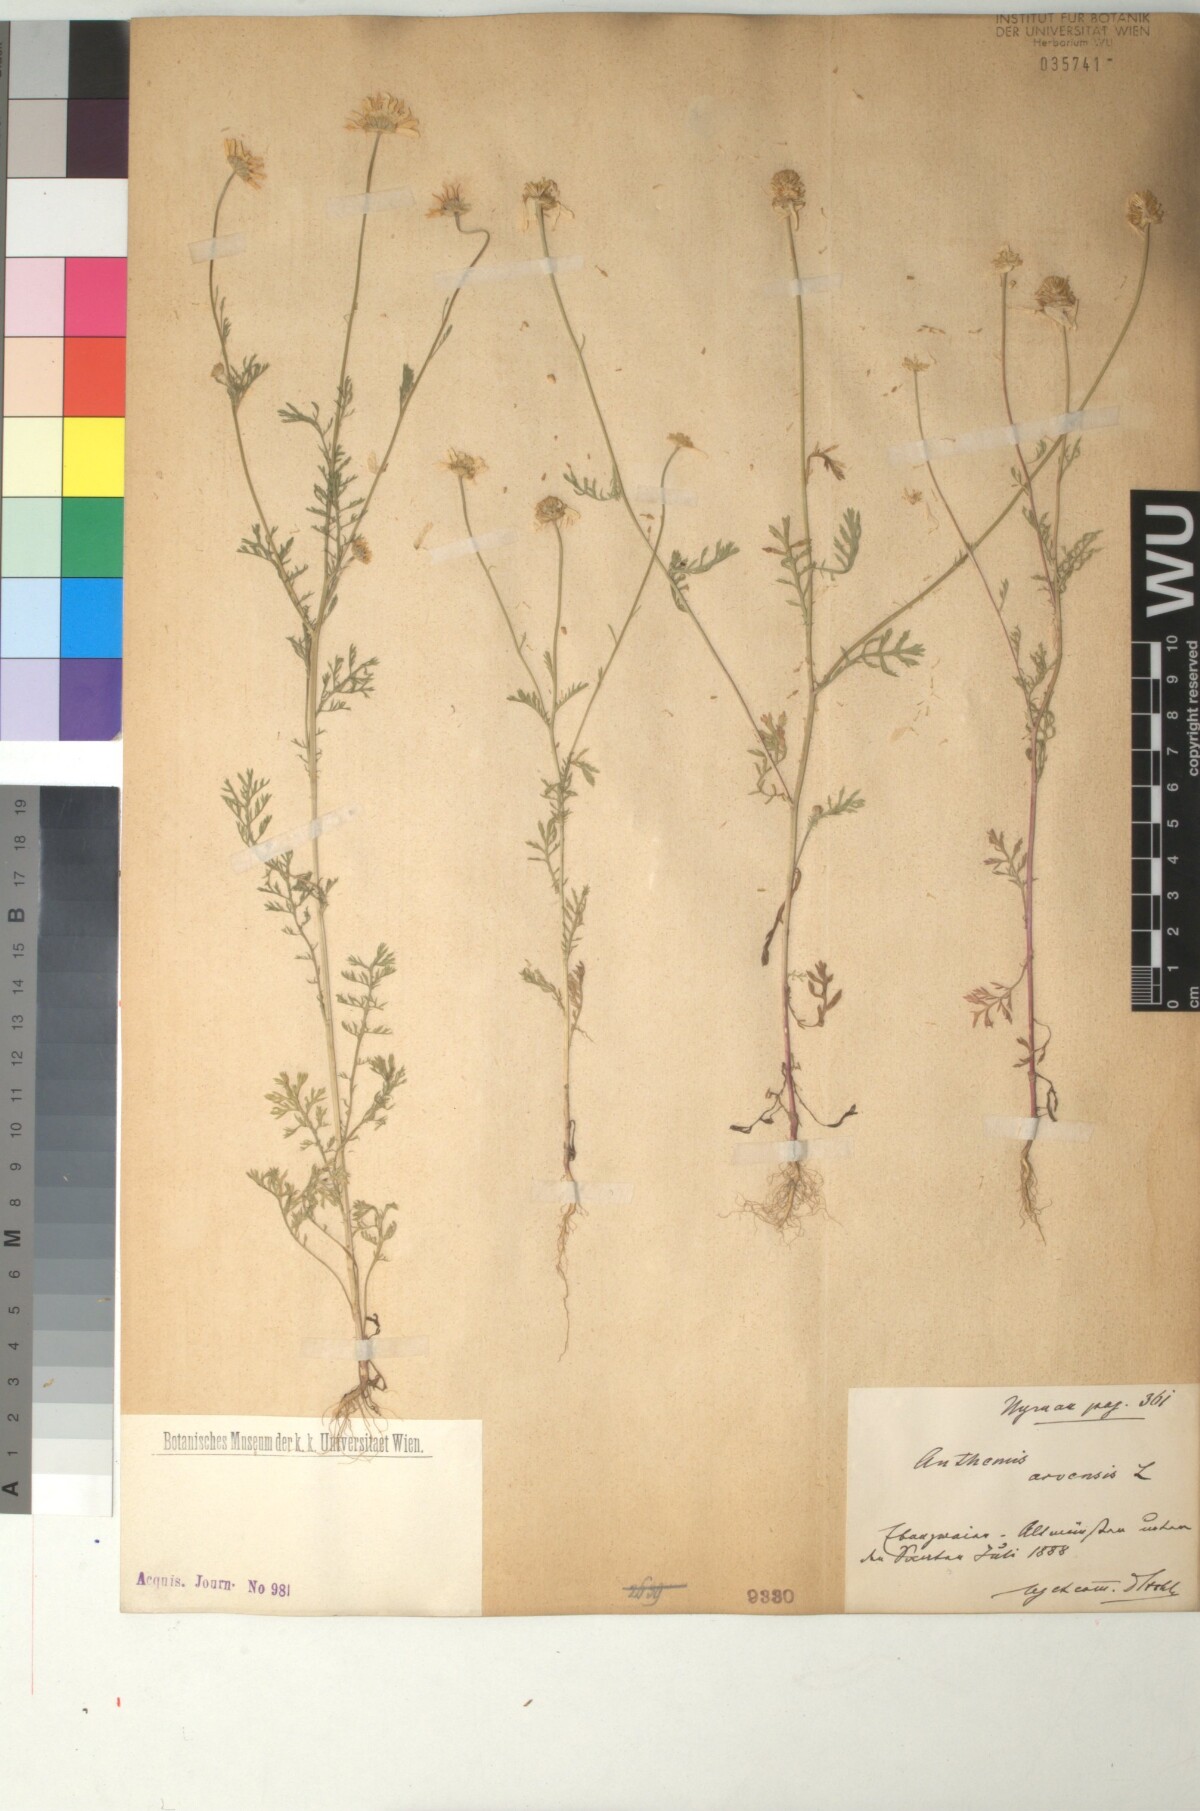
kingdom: Plantae
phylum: Tracheophyta
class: Magnoliopsida
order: Asterales
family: Asteraceae
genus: Anthemis
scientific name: Anthemis arvensis
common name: Corn chamomile
